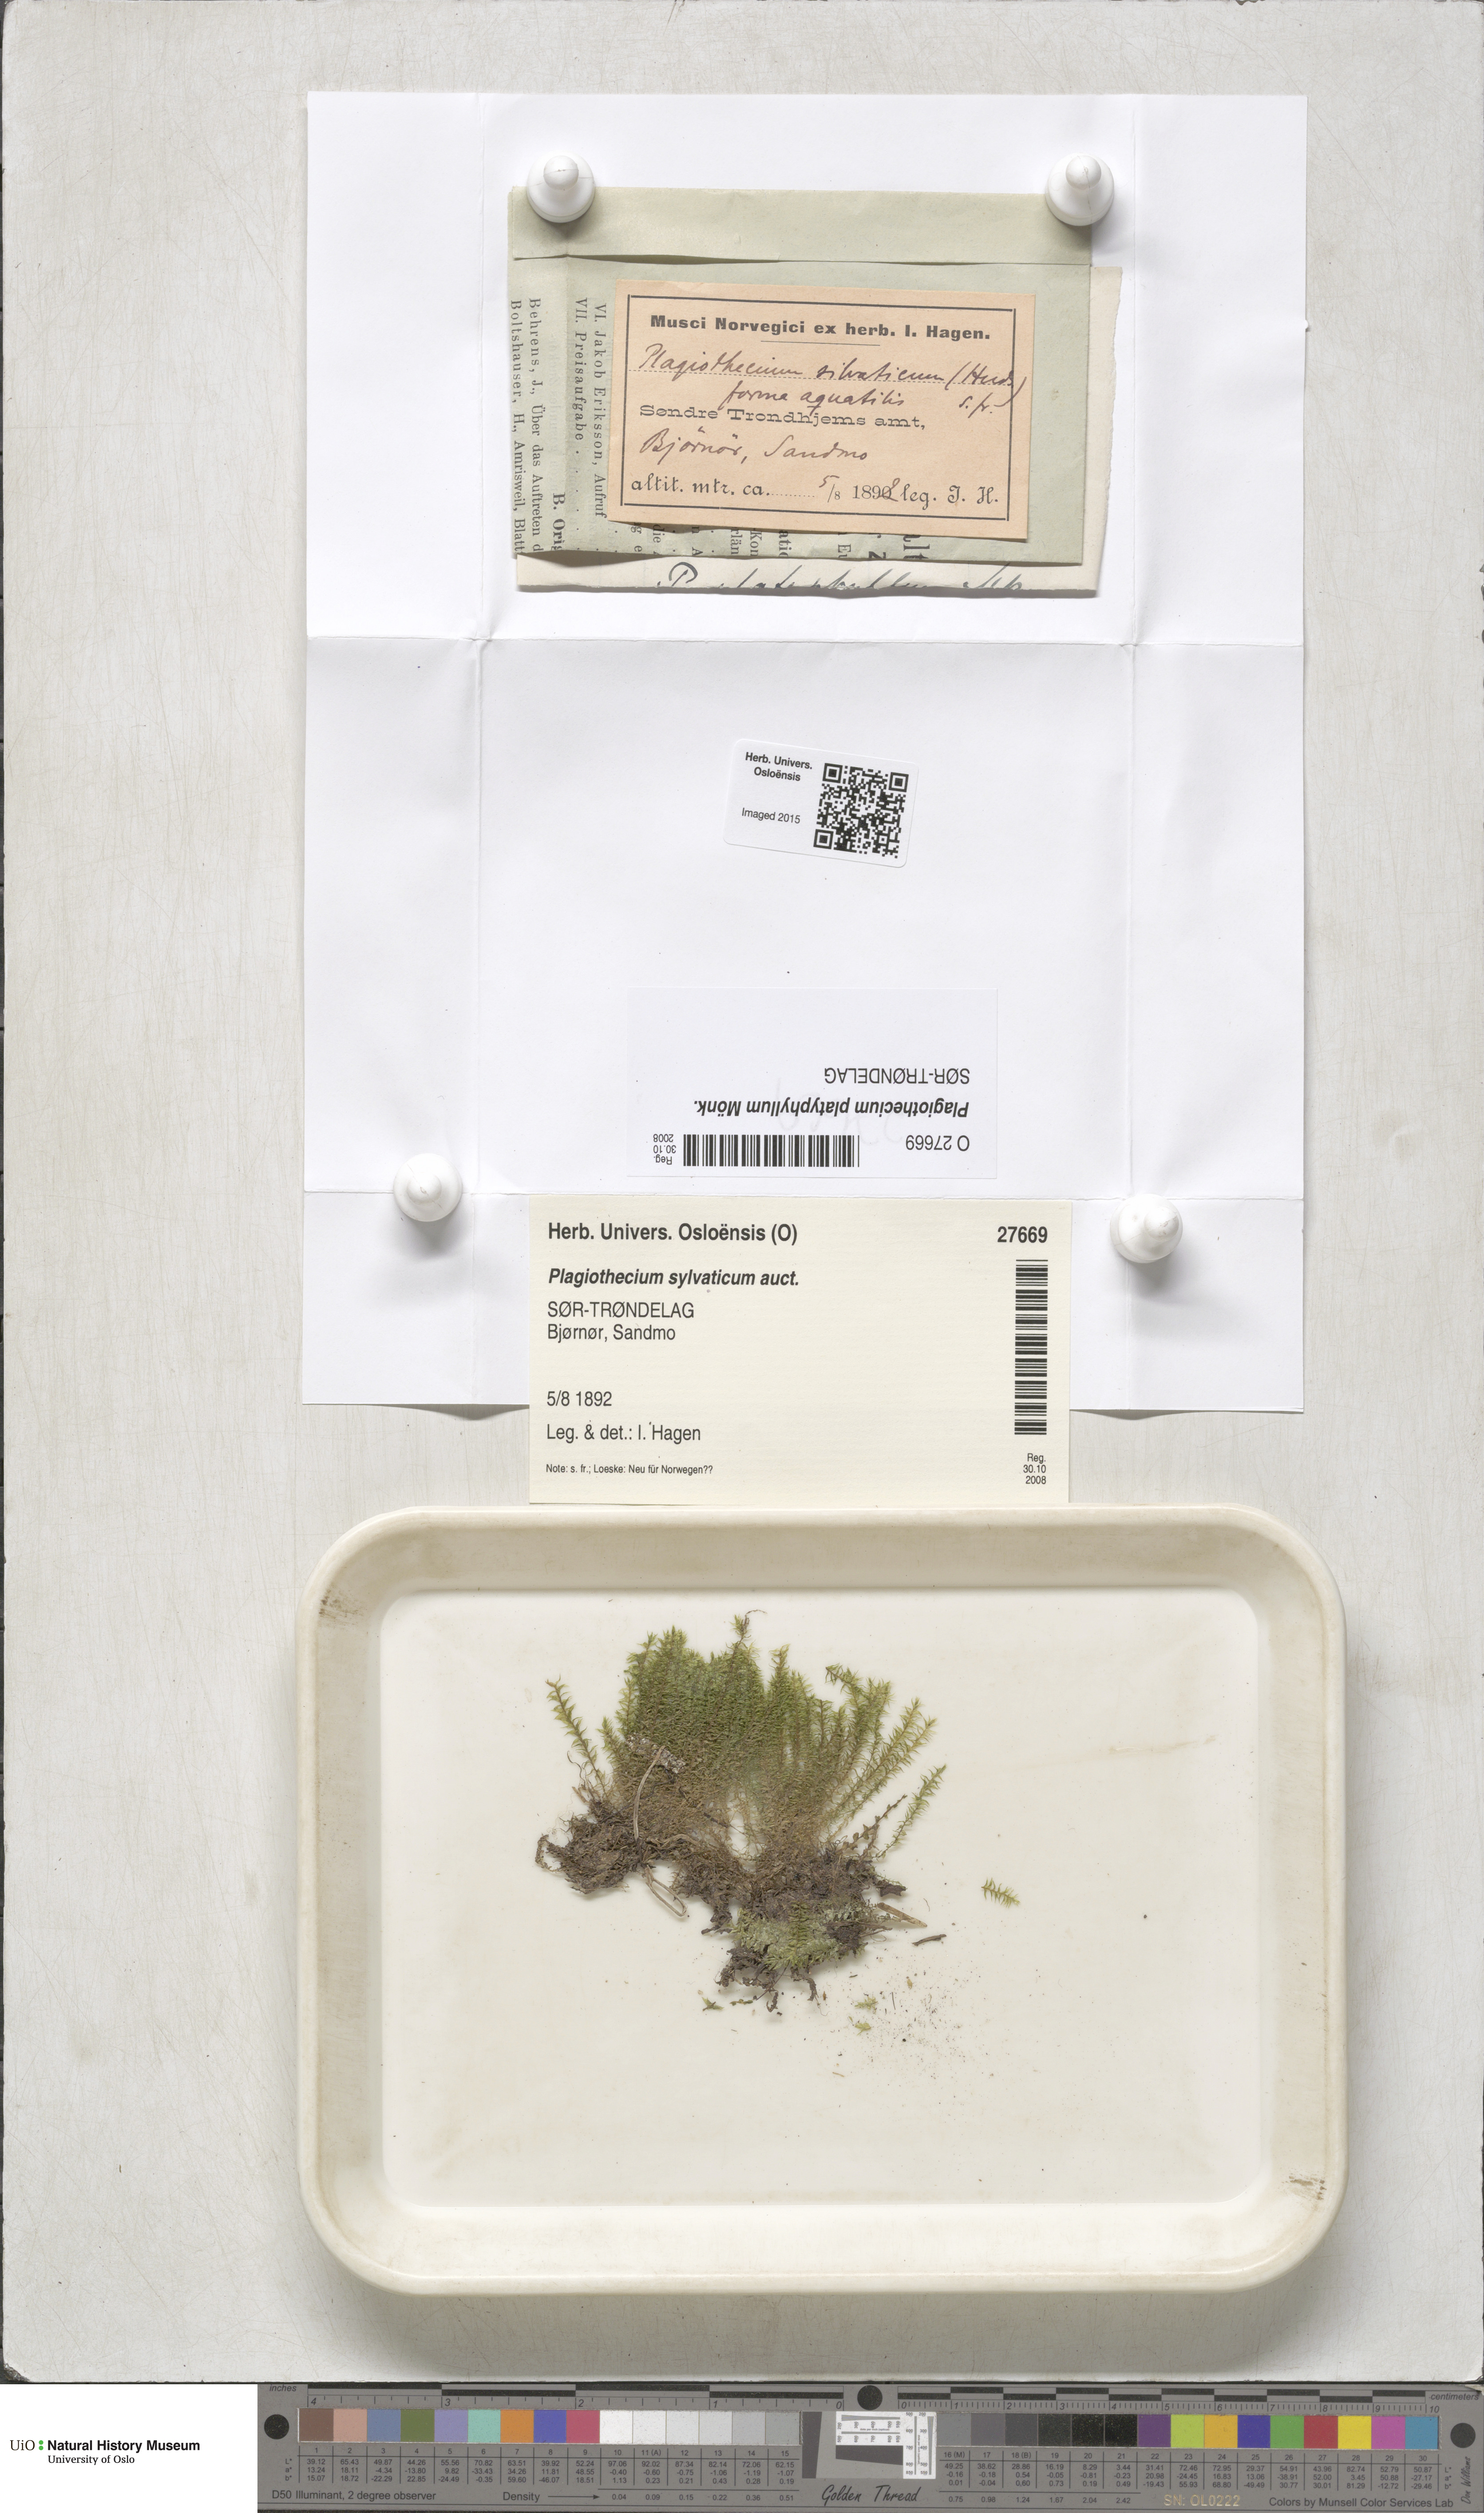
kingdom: Plantae
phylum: Bryophyta
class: Bryopsida
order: Hypnales
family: Plagiotheciaceae
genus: Plagiothecium
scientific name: Plagiothecium platyphyllum
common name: Alpine silk-moss
